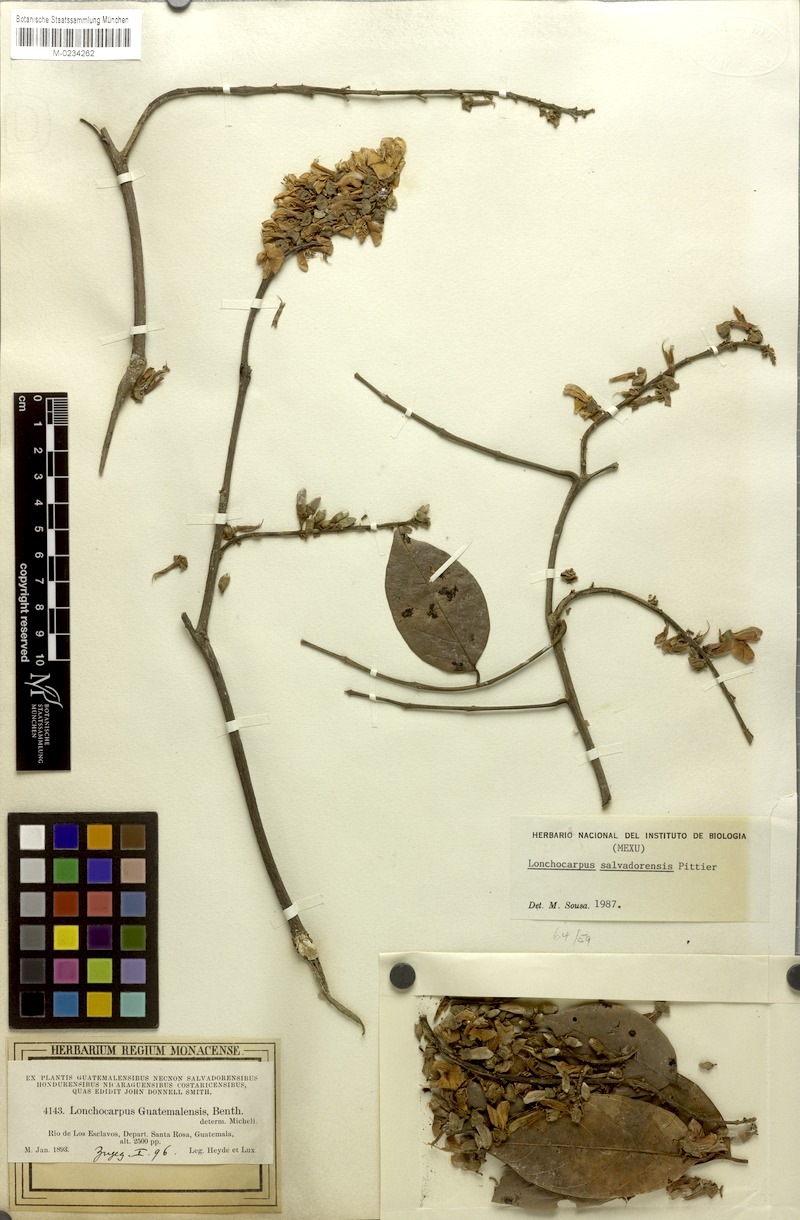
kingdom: Plantae
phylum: Tracheophyta
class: Magnoliopsida
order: Fabales
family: Fabaceae
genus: Lonchocarpus
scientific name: Lonchocarpus salvadorensis
